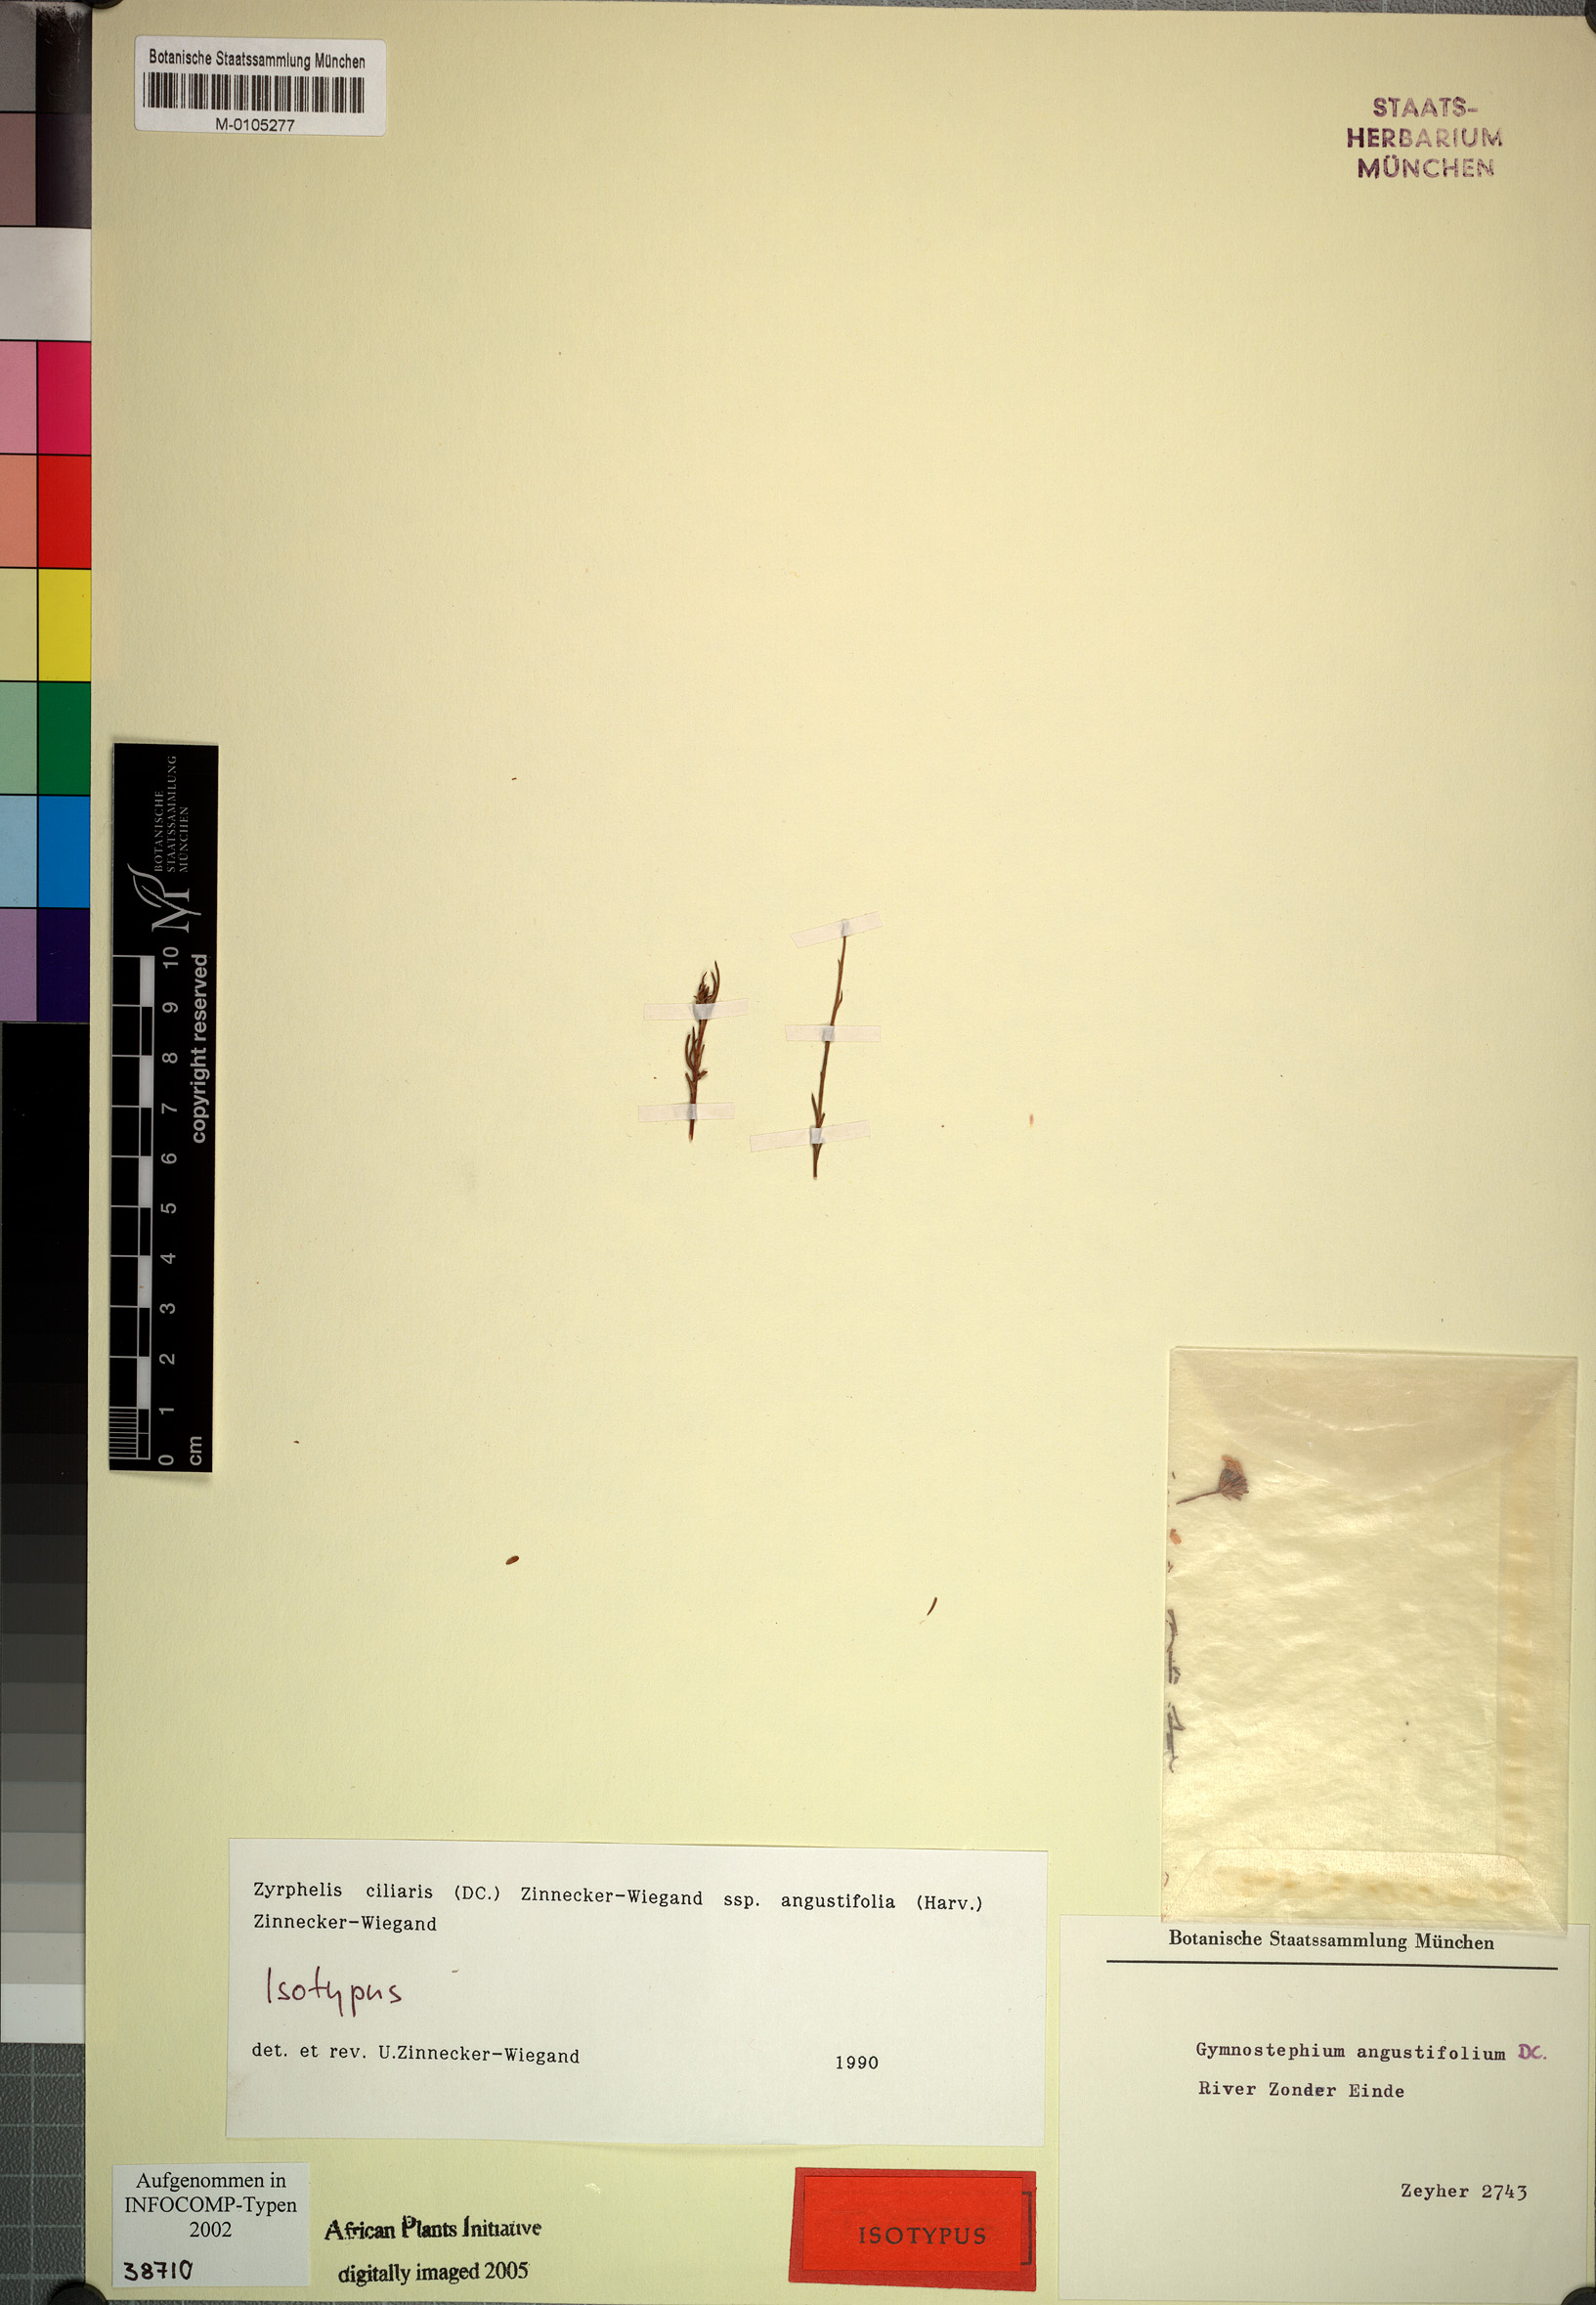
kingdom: Plantae
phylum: Tracheophyta
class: Magnoliopsida
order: Asterales
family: Asteraceae
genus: Zyrphelis
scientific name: Zyrphelis ciliaris
